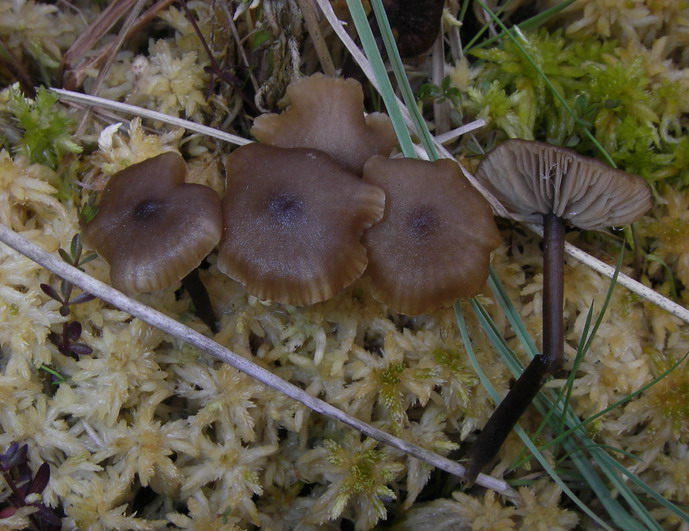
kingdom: Fungi
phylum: Basidiomycota
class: Agaricomycetes
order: Agaricales
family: Lyophyllaceae
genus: Sphagnurus
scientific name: Sphagnurus paluster
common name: tørvemos-gråblad
